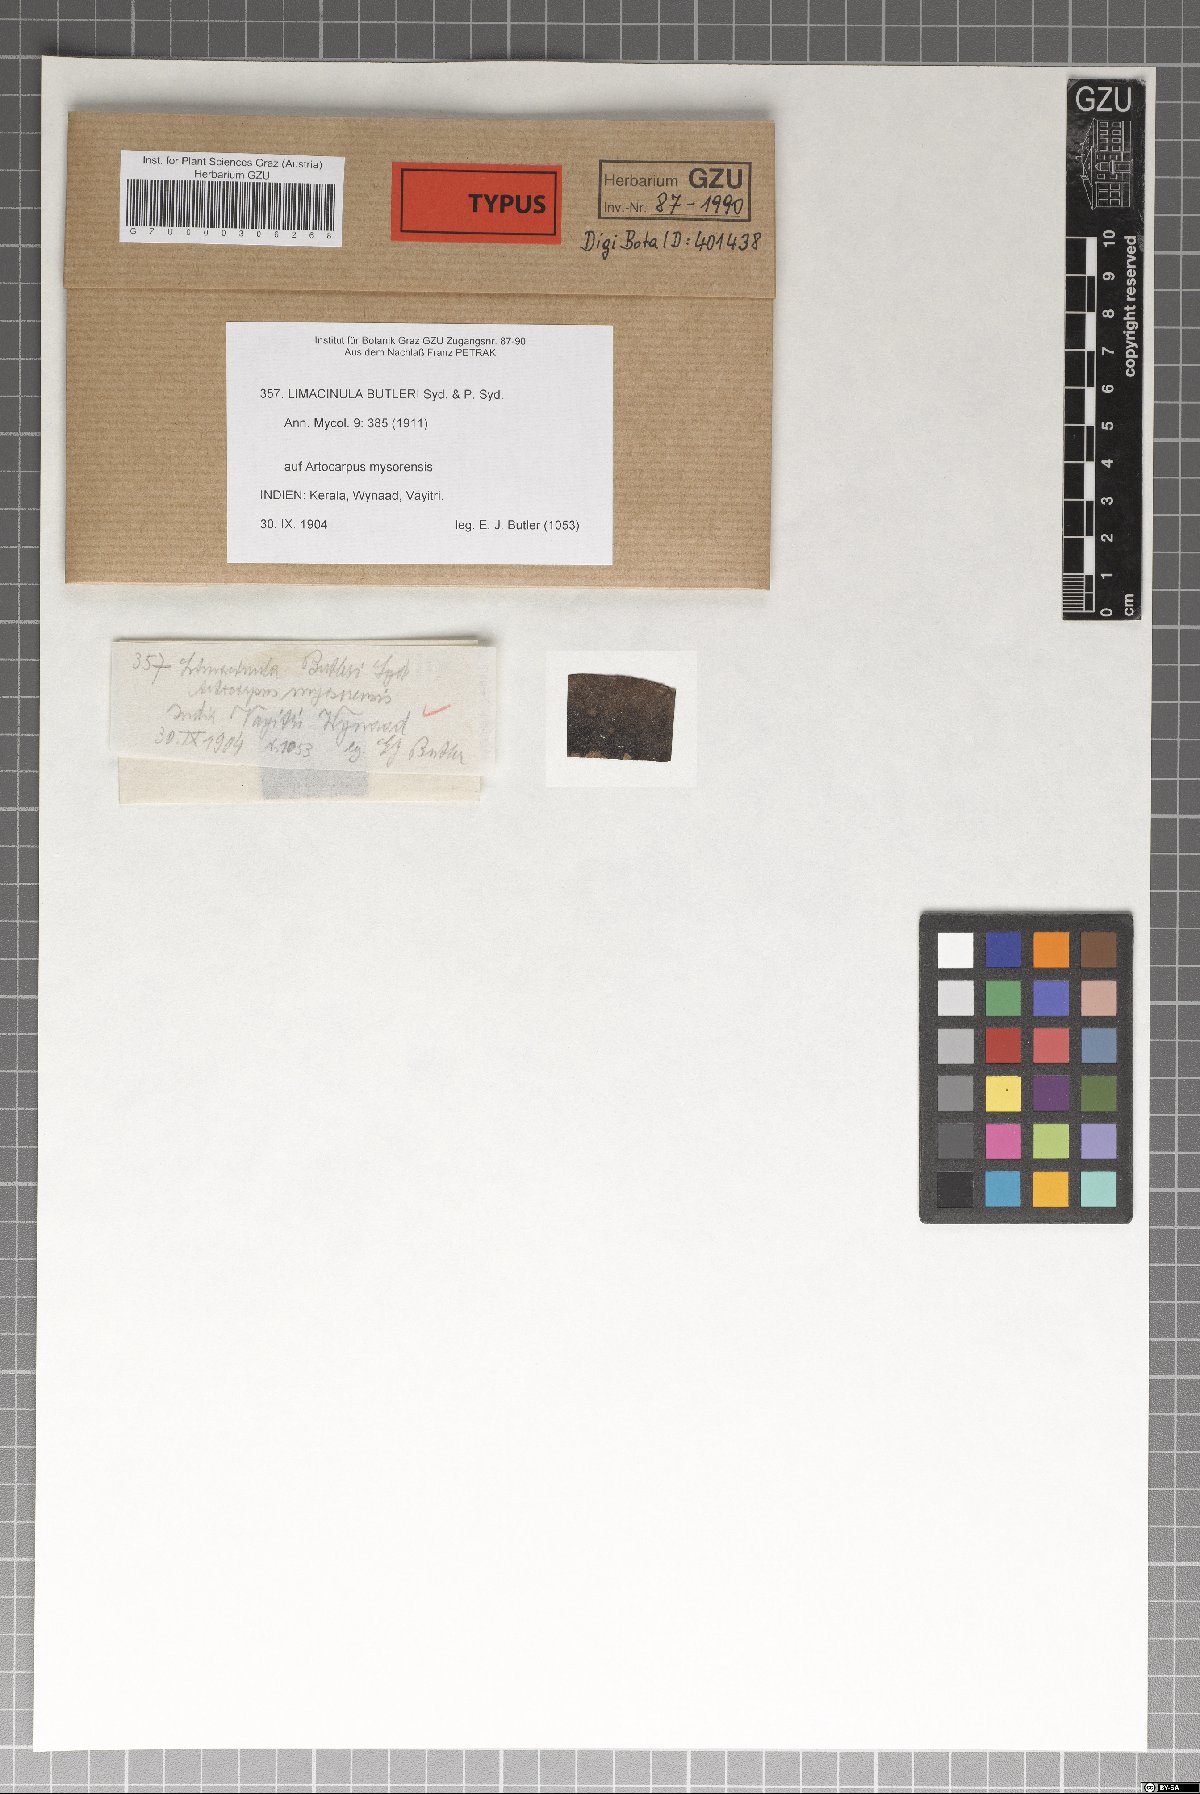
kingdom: Fungi
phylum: Ascomycota
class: Eurotiomycetes
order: Chaetothyriales
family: Chaetothyriaceae
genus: Chaetothyrium
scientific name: Chaetothyrium butleri
